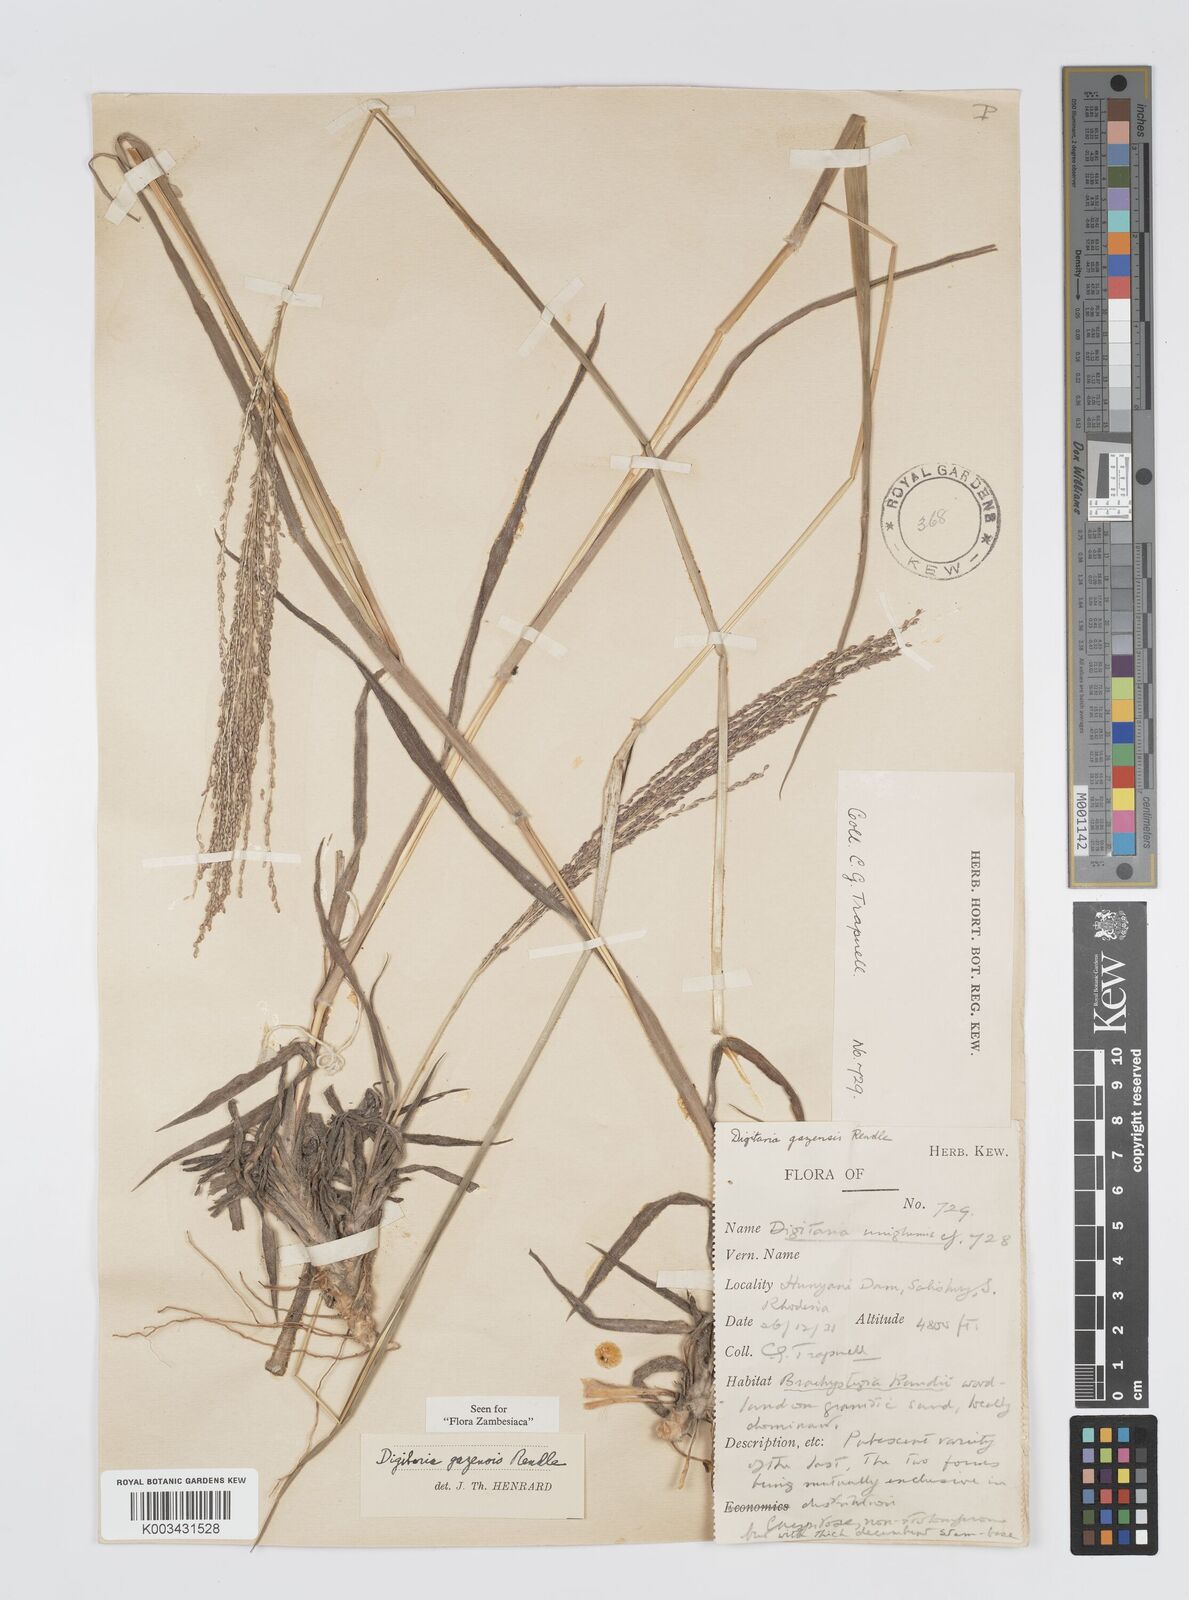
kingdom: Plantae
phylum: Tracheophyta
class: Liliopsida
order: Poales
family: Poaceae
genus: Digitaria
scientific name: Digitaria gazensis
